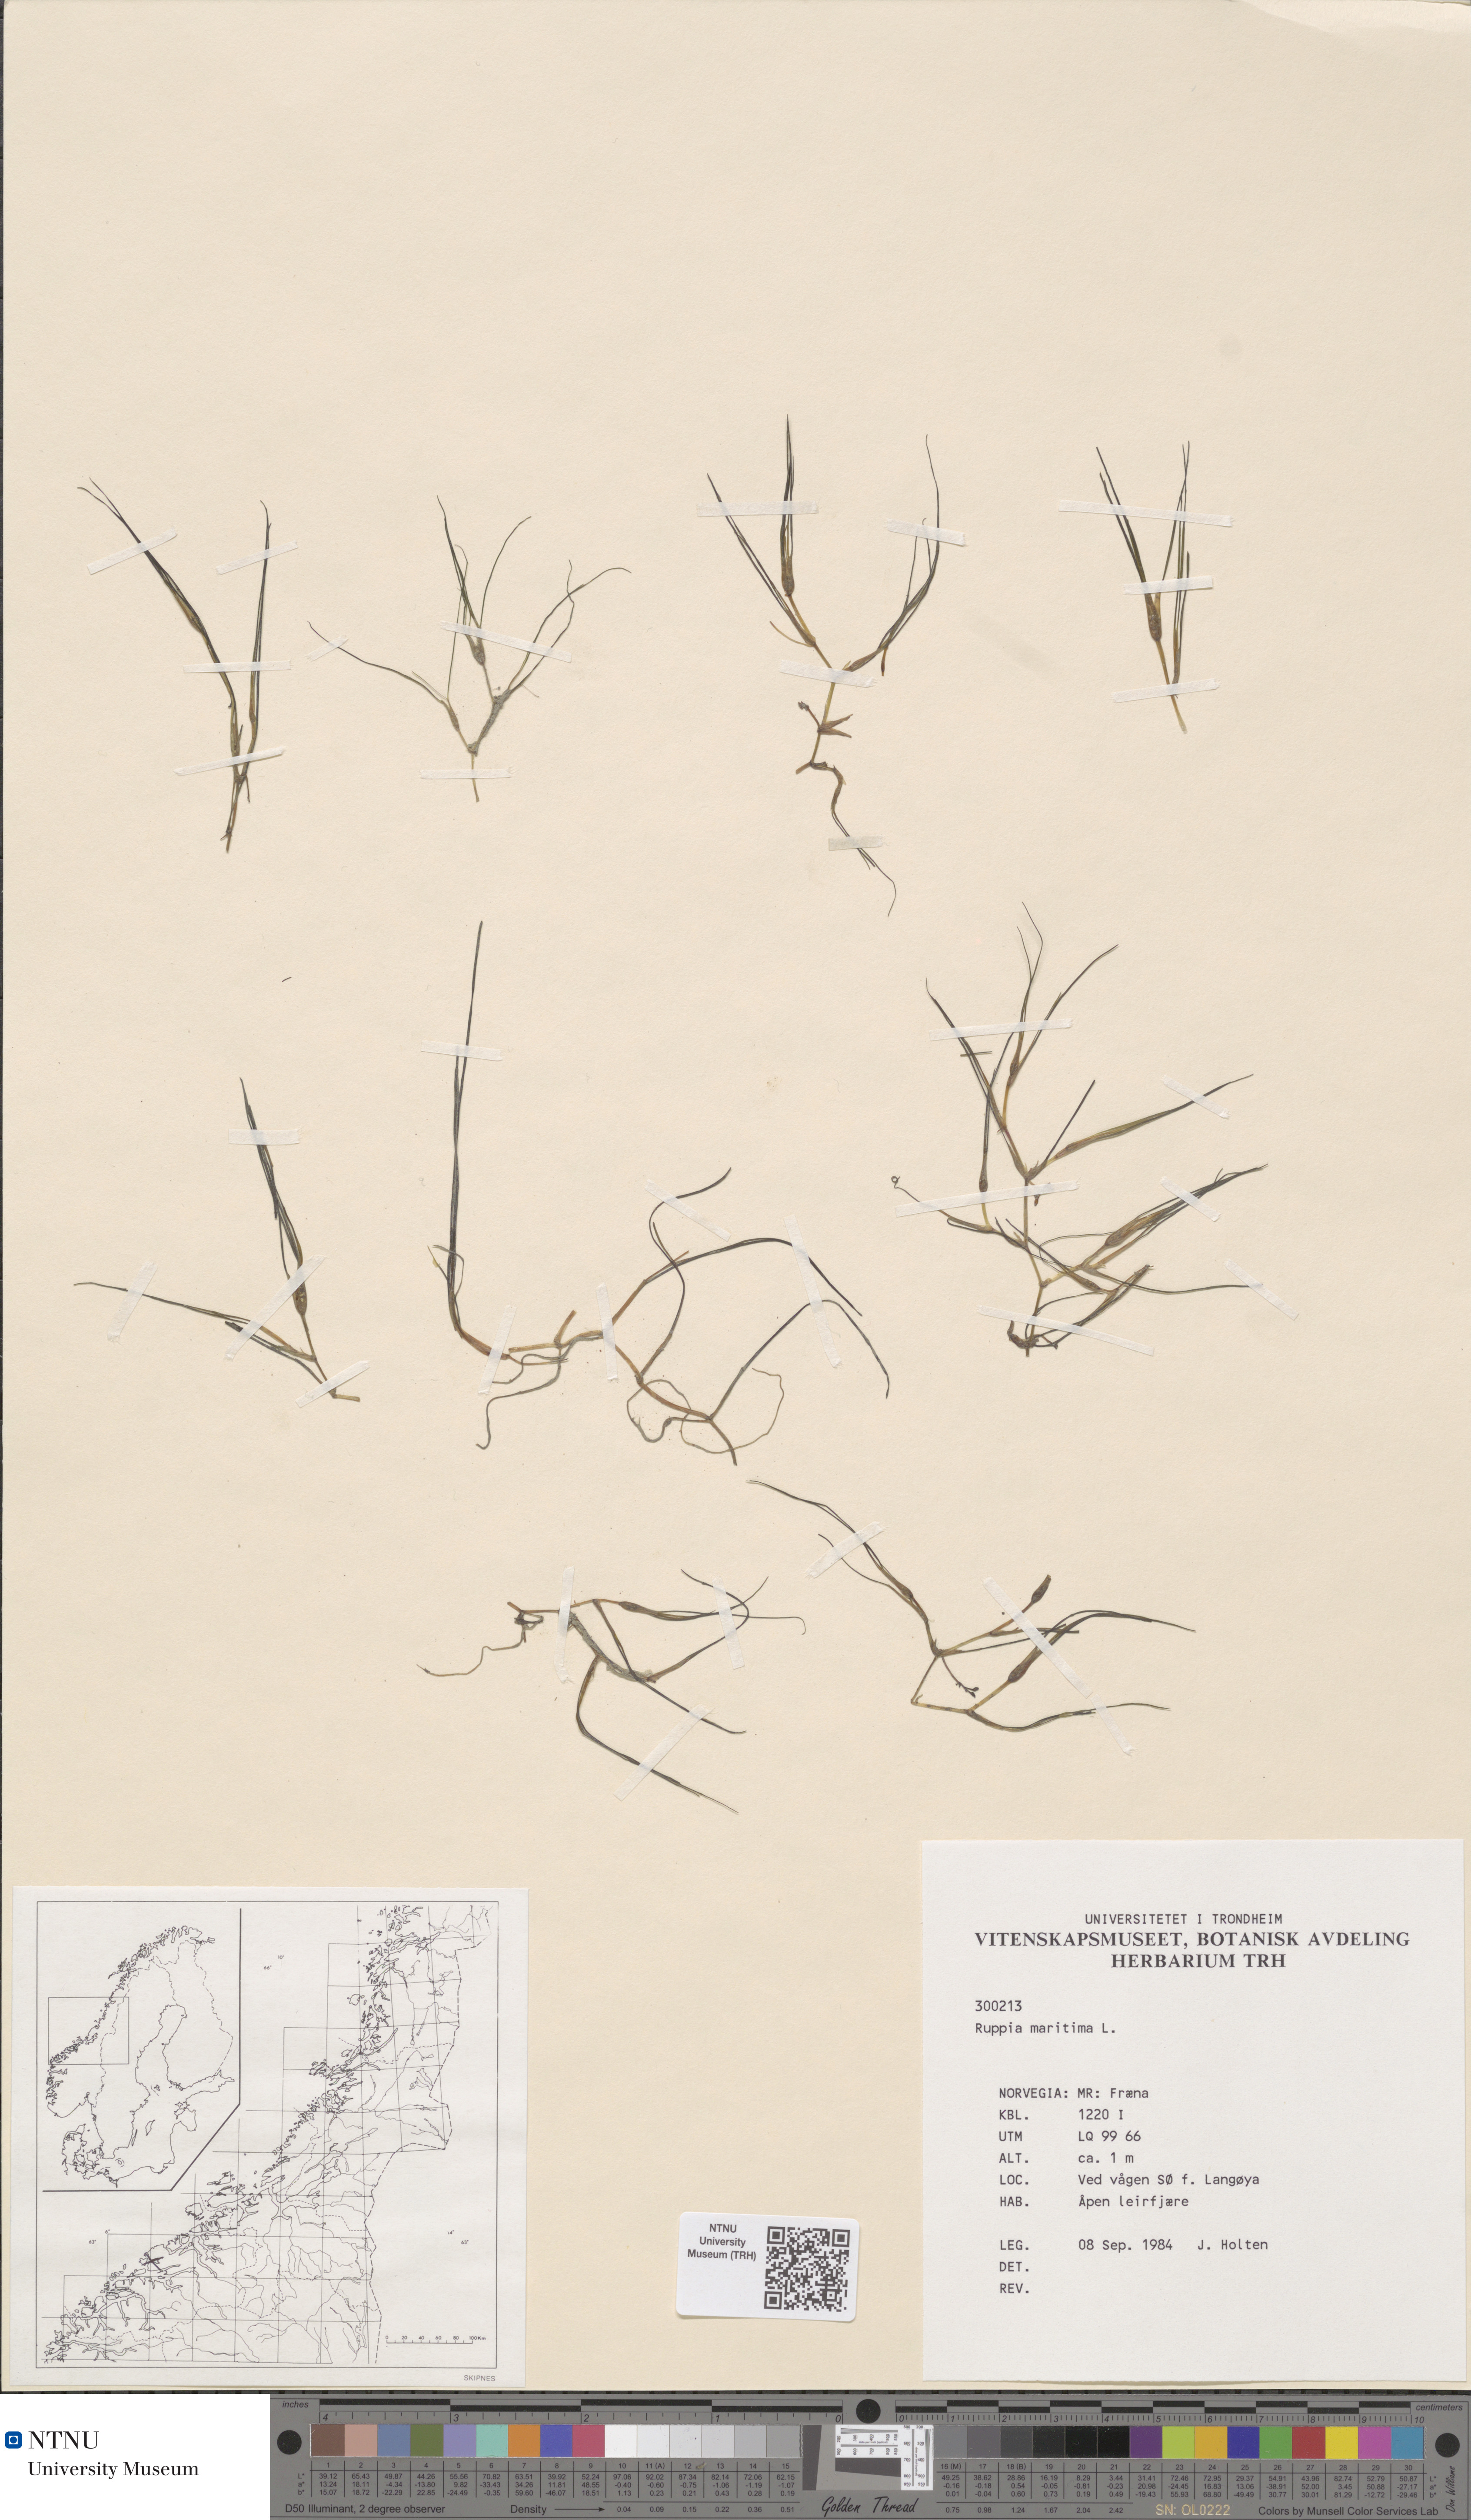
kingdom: Plantae
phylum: Tracheophyta
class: Liliopsida
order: Alismatales
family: Ruppiaceae
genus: Ruppia
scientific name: Ruppia maritima
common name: Beaked tasselweed
